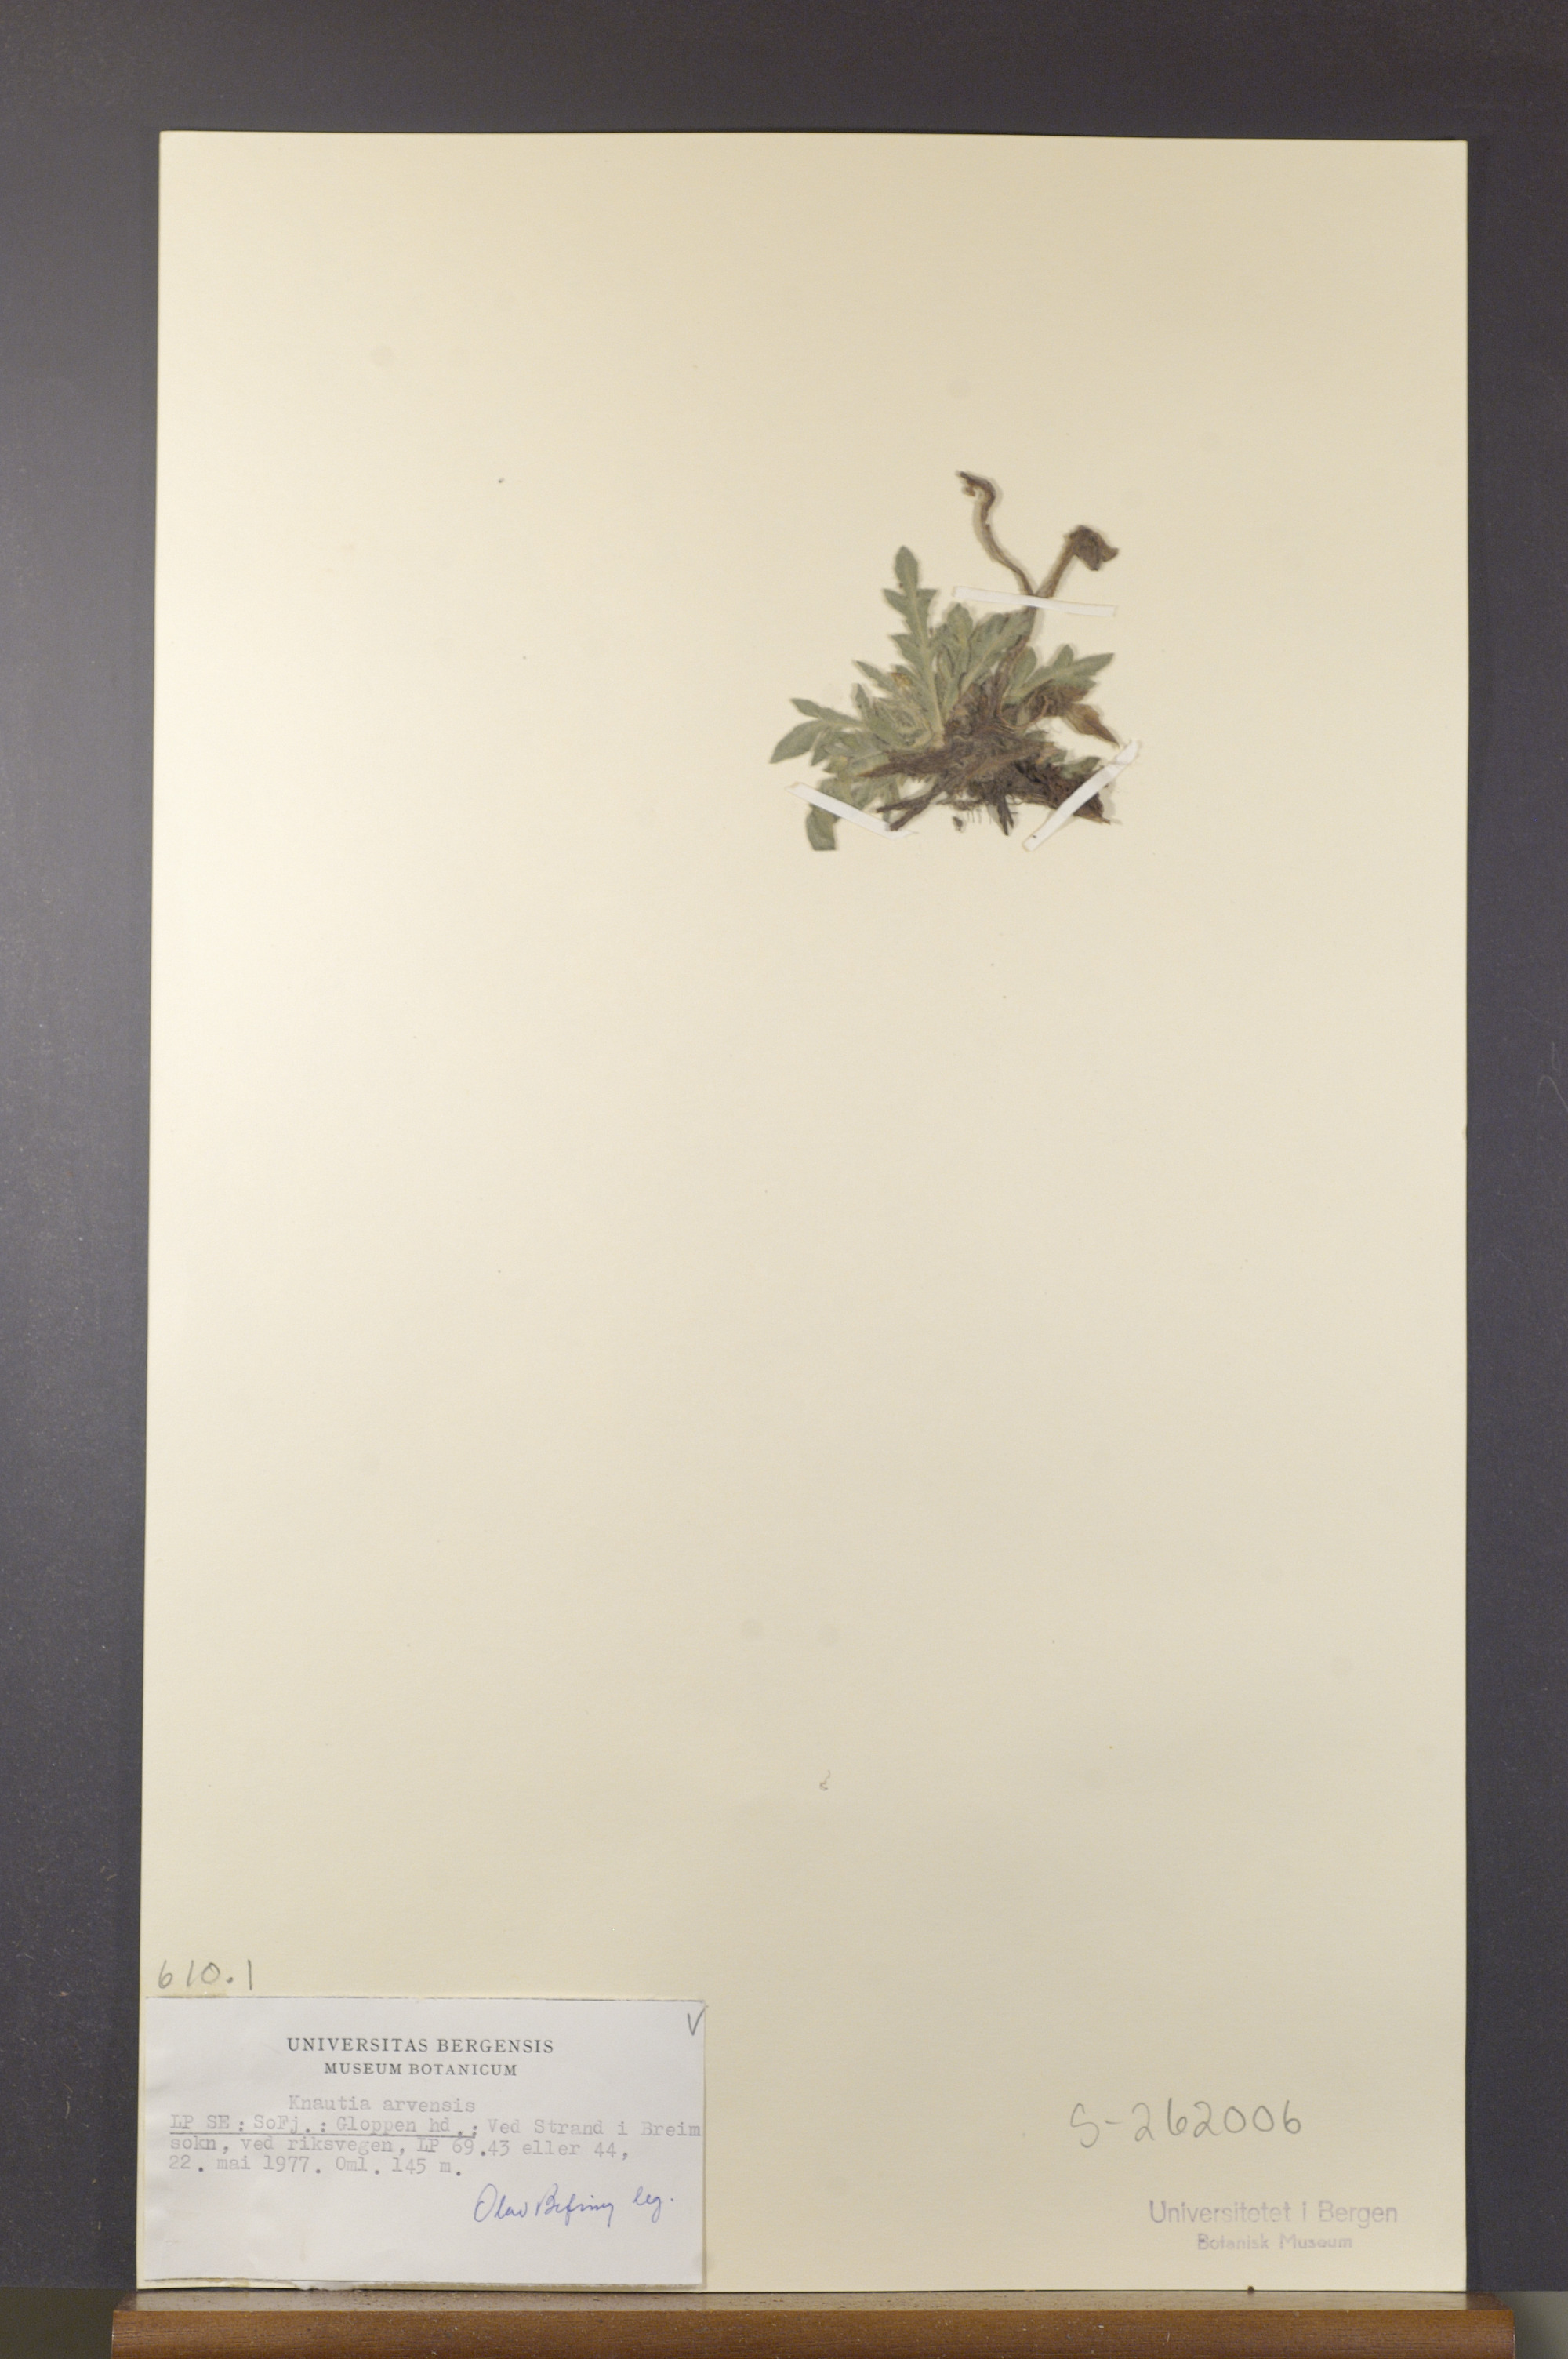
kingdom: Plantae
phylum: Tracheophyta
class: Magnoliopsida
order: Dipsacales
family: Caprifoliaceae
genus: Knautia
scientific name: Knautia arvensis
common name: Field scabiosa
